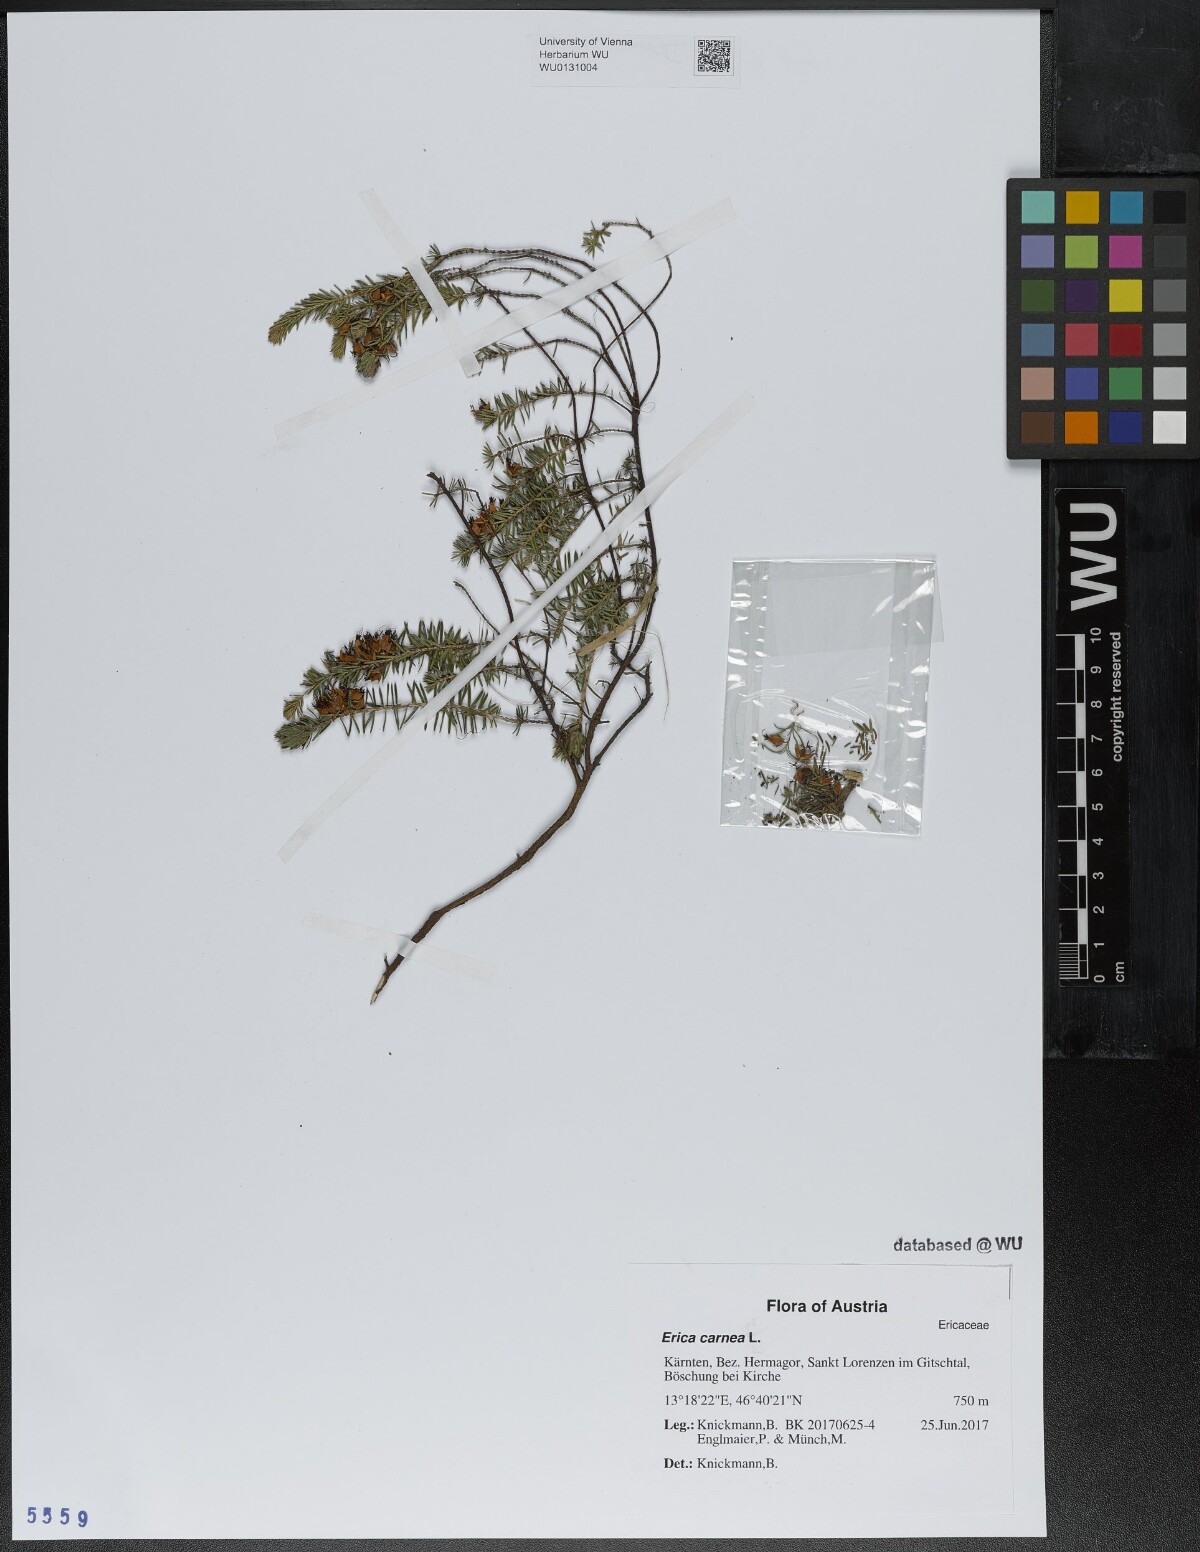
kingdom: Plantae
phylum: Tracheophyta
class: Magnoliopsida
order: Ericales
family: Ericaceae
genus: Erica
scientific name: Erica carnea
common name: Winter heath
